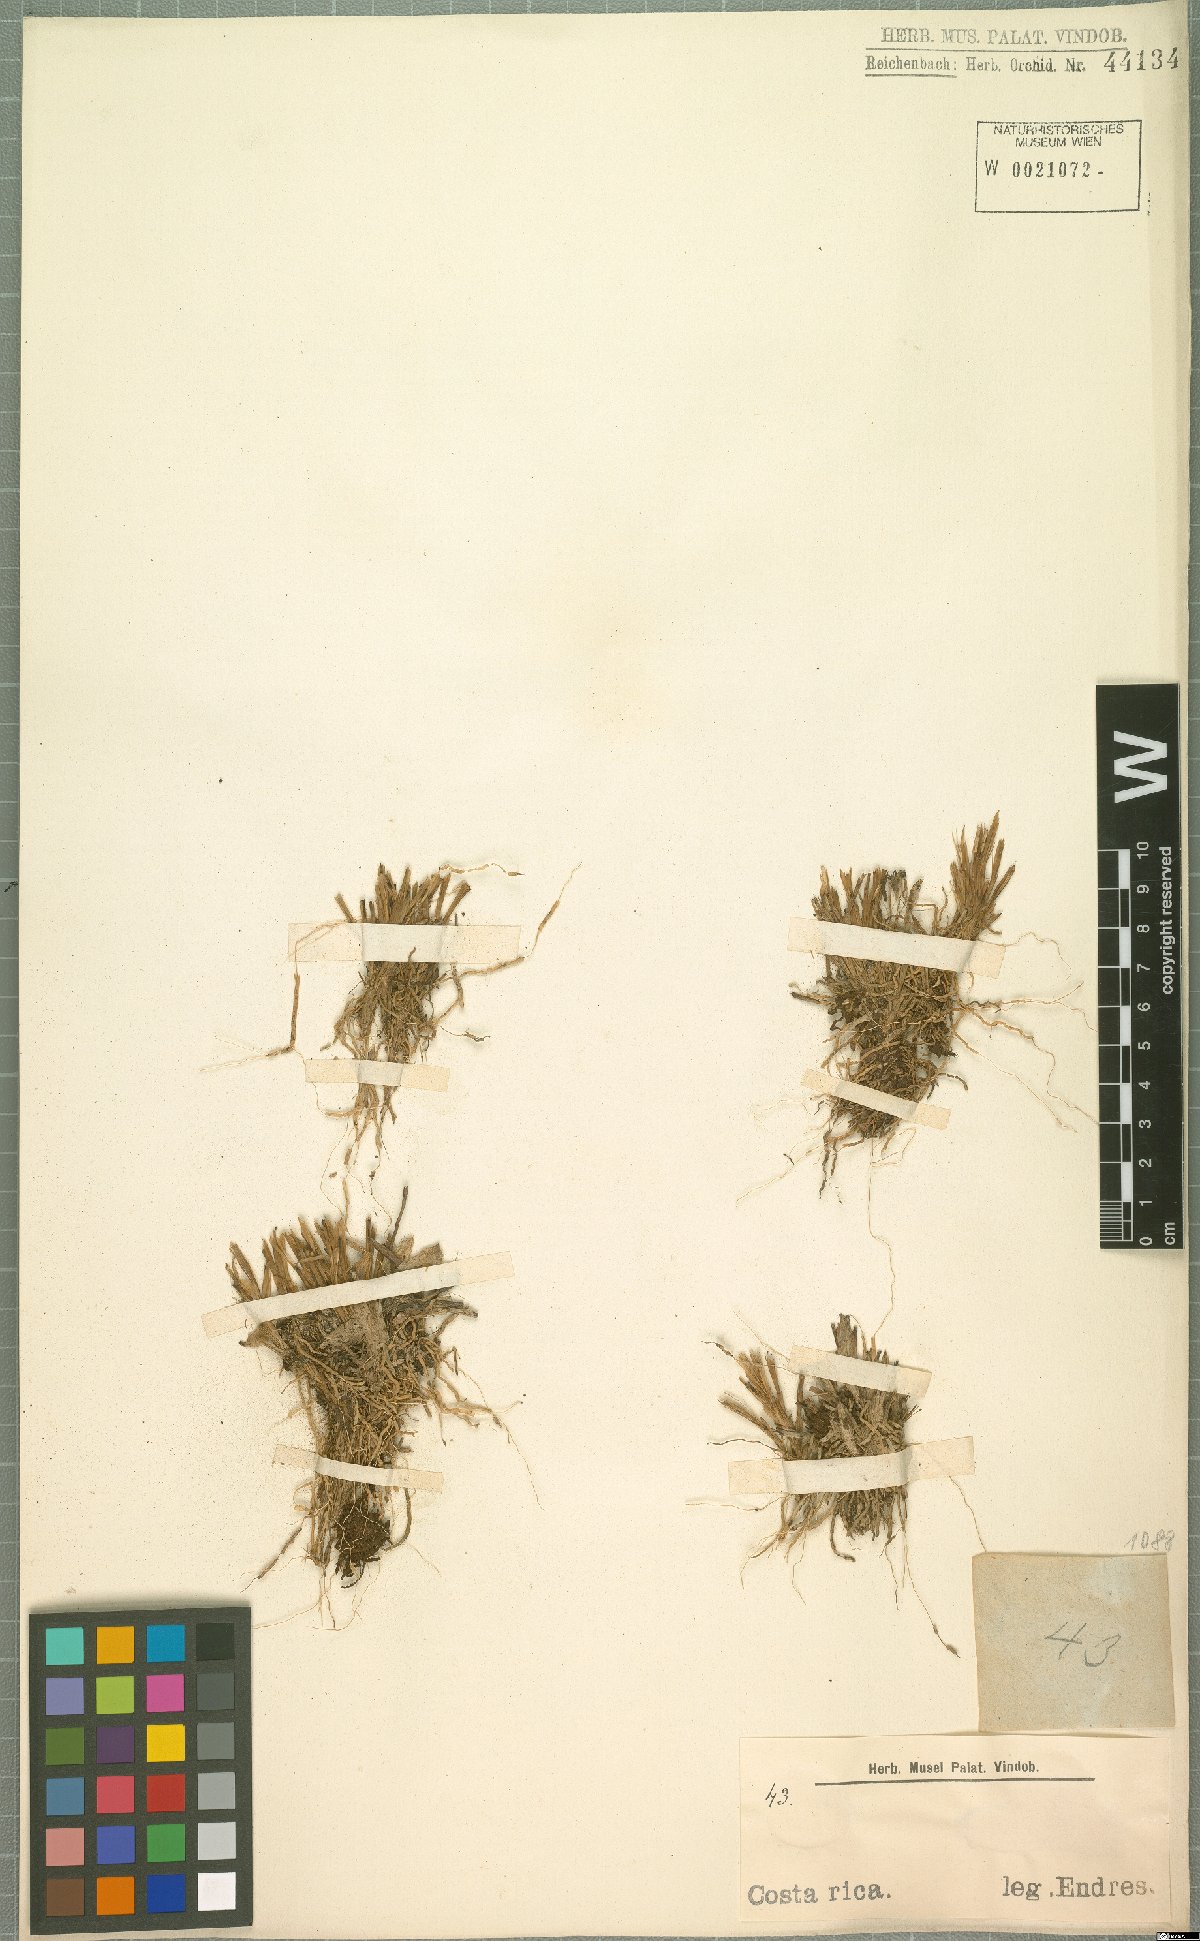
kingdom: Plantae
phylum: Tracheophyta
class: Liliopsida
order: Asparagales
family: Orchidaceae
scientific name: Orchidaceae
